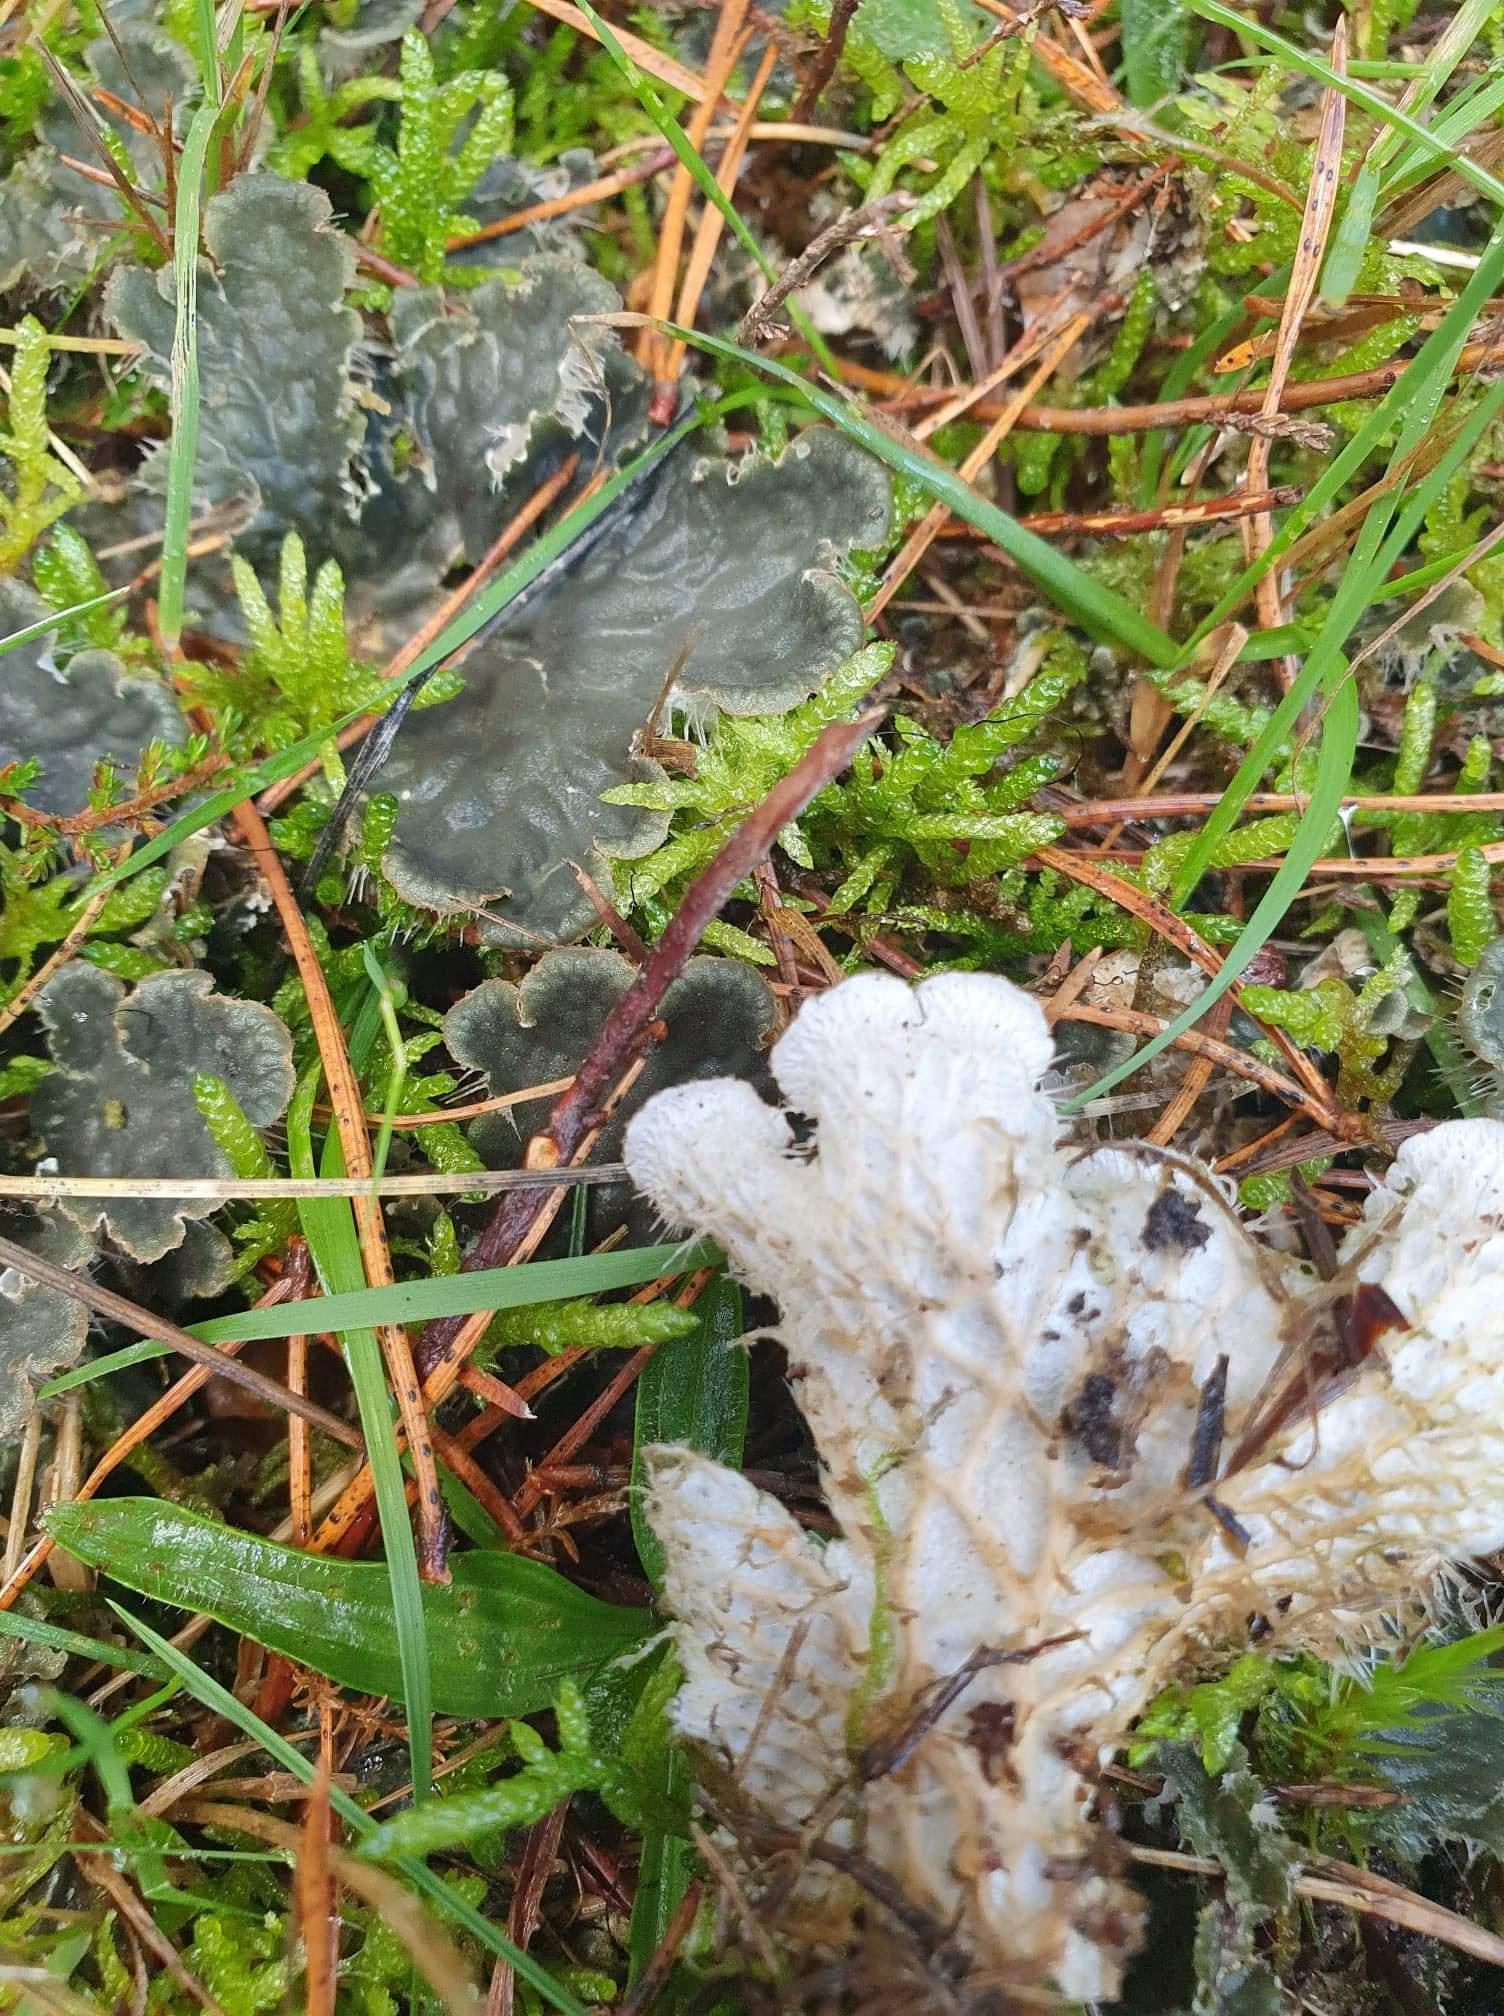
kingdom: Fungi
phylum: Ascomycota
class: Lecanoromycetes
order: Peltigerales
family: Peltigeraceae
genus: Peltigera
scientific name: Peltigera membranacea
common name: tynd skjoldlav
